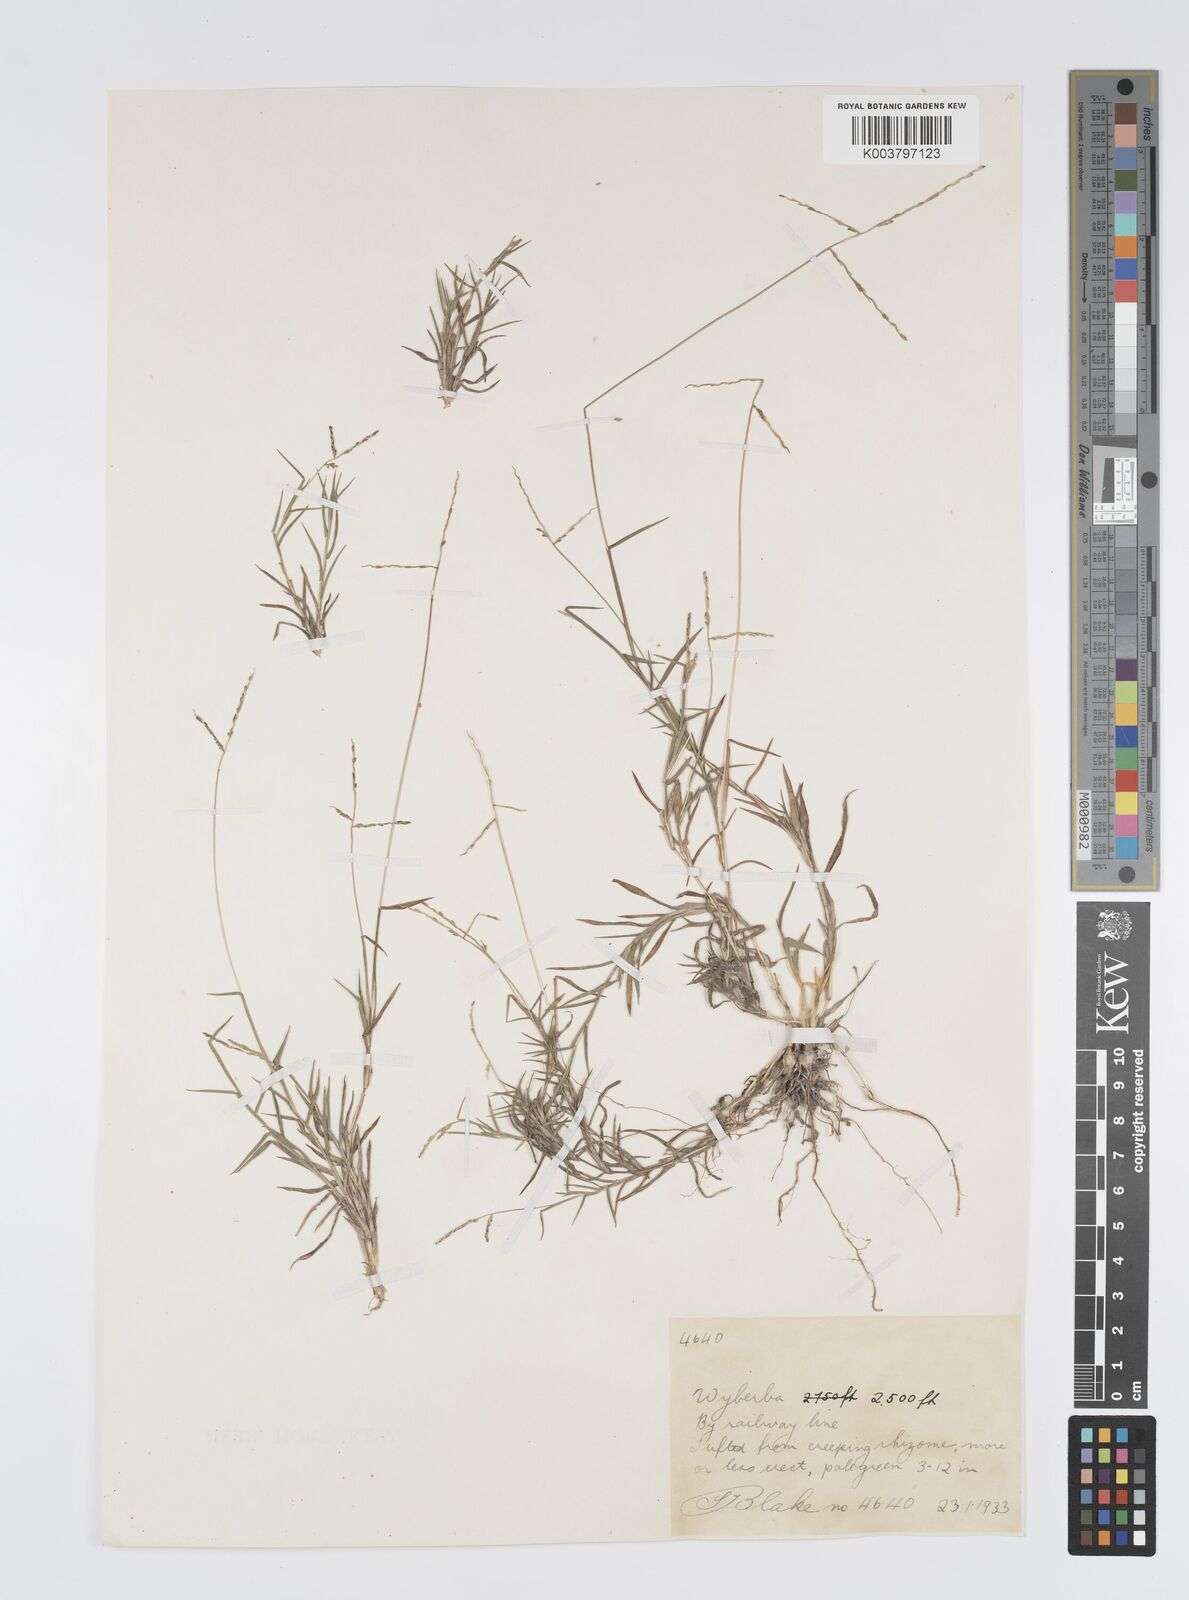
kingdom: Plantae
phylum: Tracheophyta
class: Liliopsida
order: Poales
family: Poaceae
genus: Digitaria
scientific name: Digitaria diffusa
